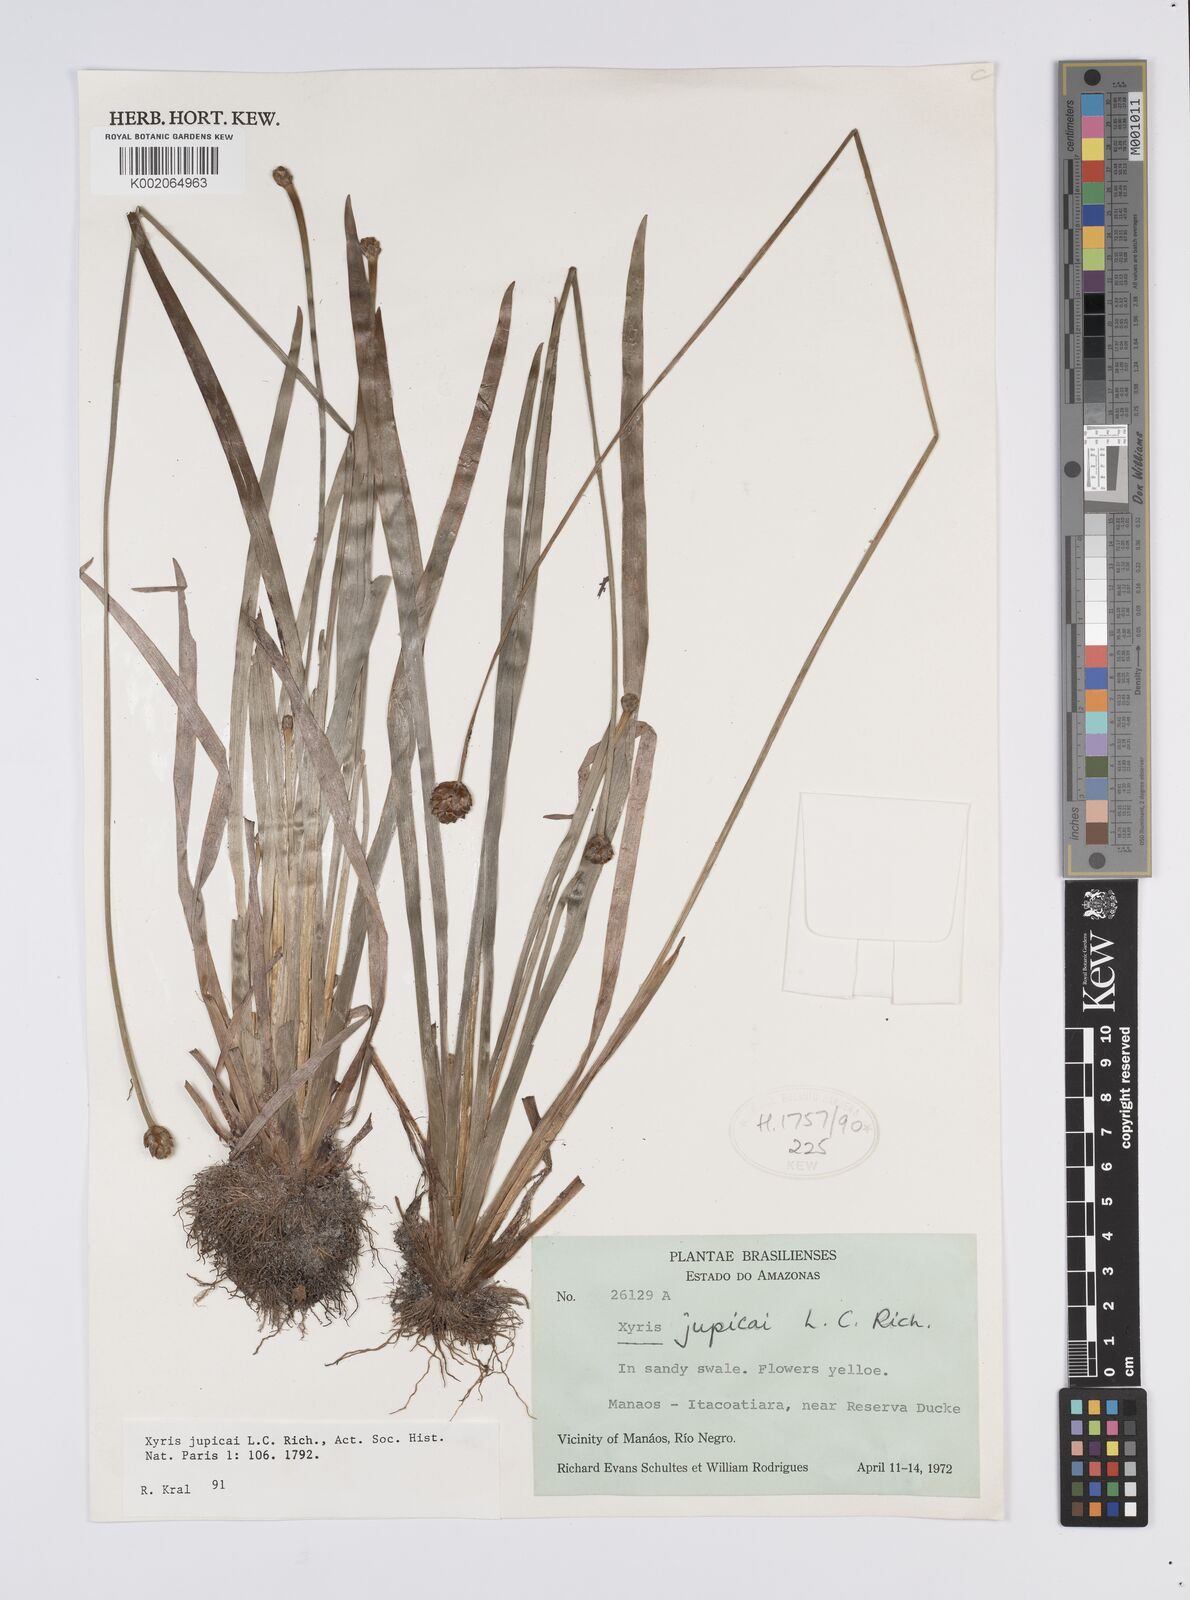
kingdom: Plantae
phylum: Tracheophyta
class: Liliopsida
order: Poales
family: Xyridaceae
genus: Xyris
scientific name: Xyris jupicai
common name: Richard's yelloweyed grass
